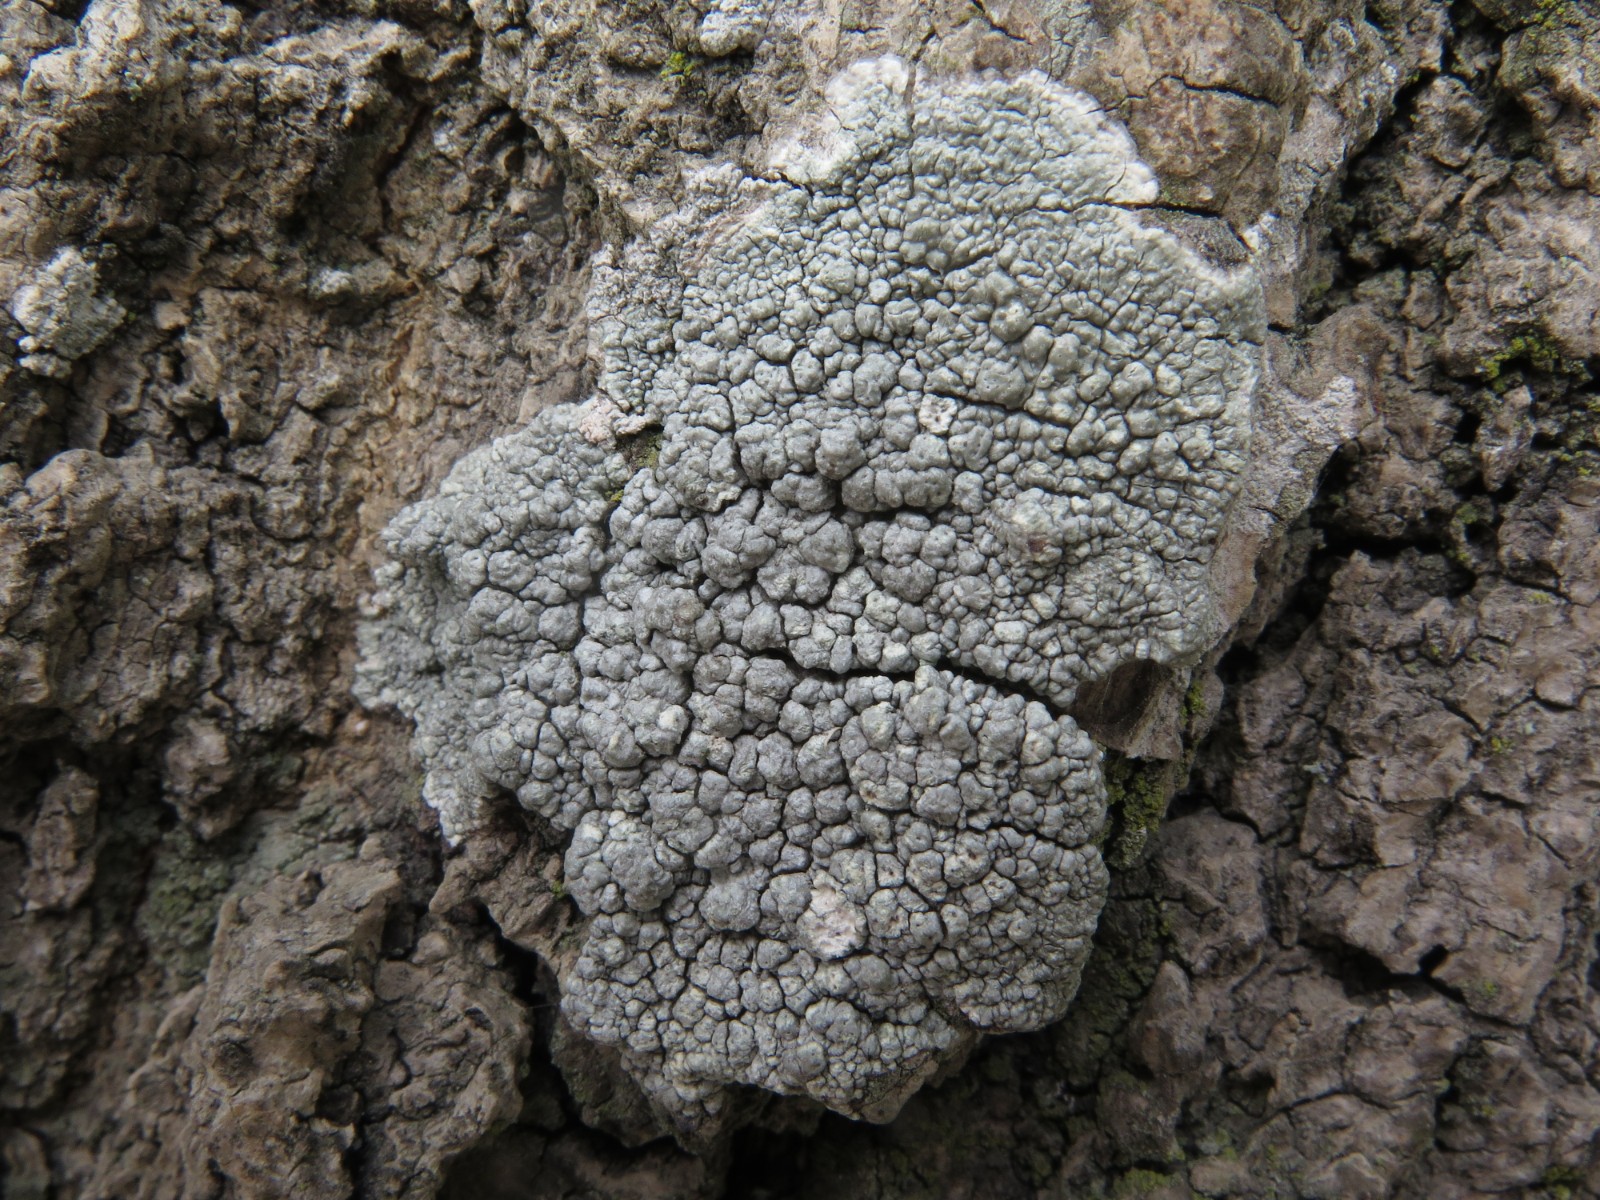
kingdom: Fungi
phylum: Ascomycota
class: Lecanoromycetes
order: Pertusariales
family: Pertusariaceae
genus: Pertusaria
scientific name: Pertusaria pertusa
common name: almindelig prikvortelav
